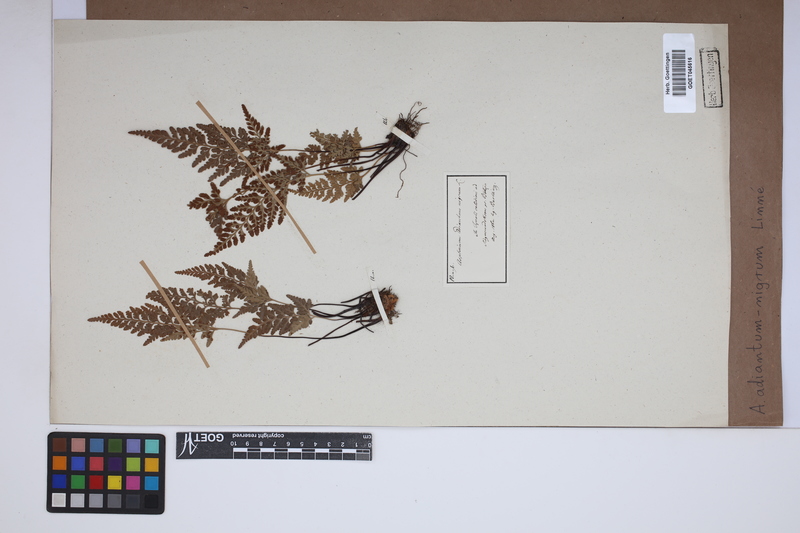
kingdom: Plantae
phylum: Tracheophyta
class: Polypodiopsida
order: Polypodiales
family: Aspleniaceae
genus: Asplenium
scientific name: Asplenium adiantum-nigrum
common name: Black spleenwort
